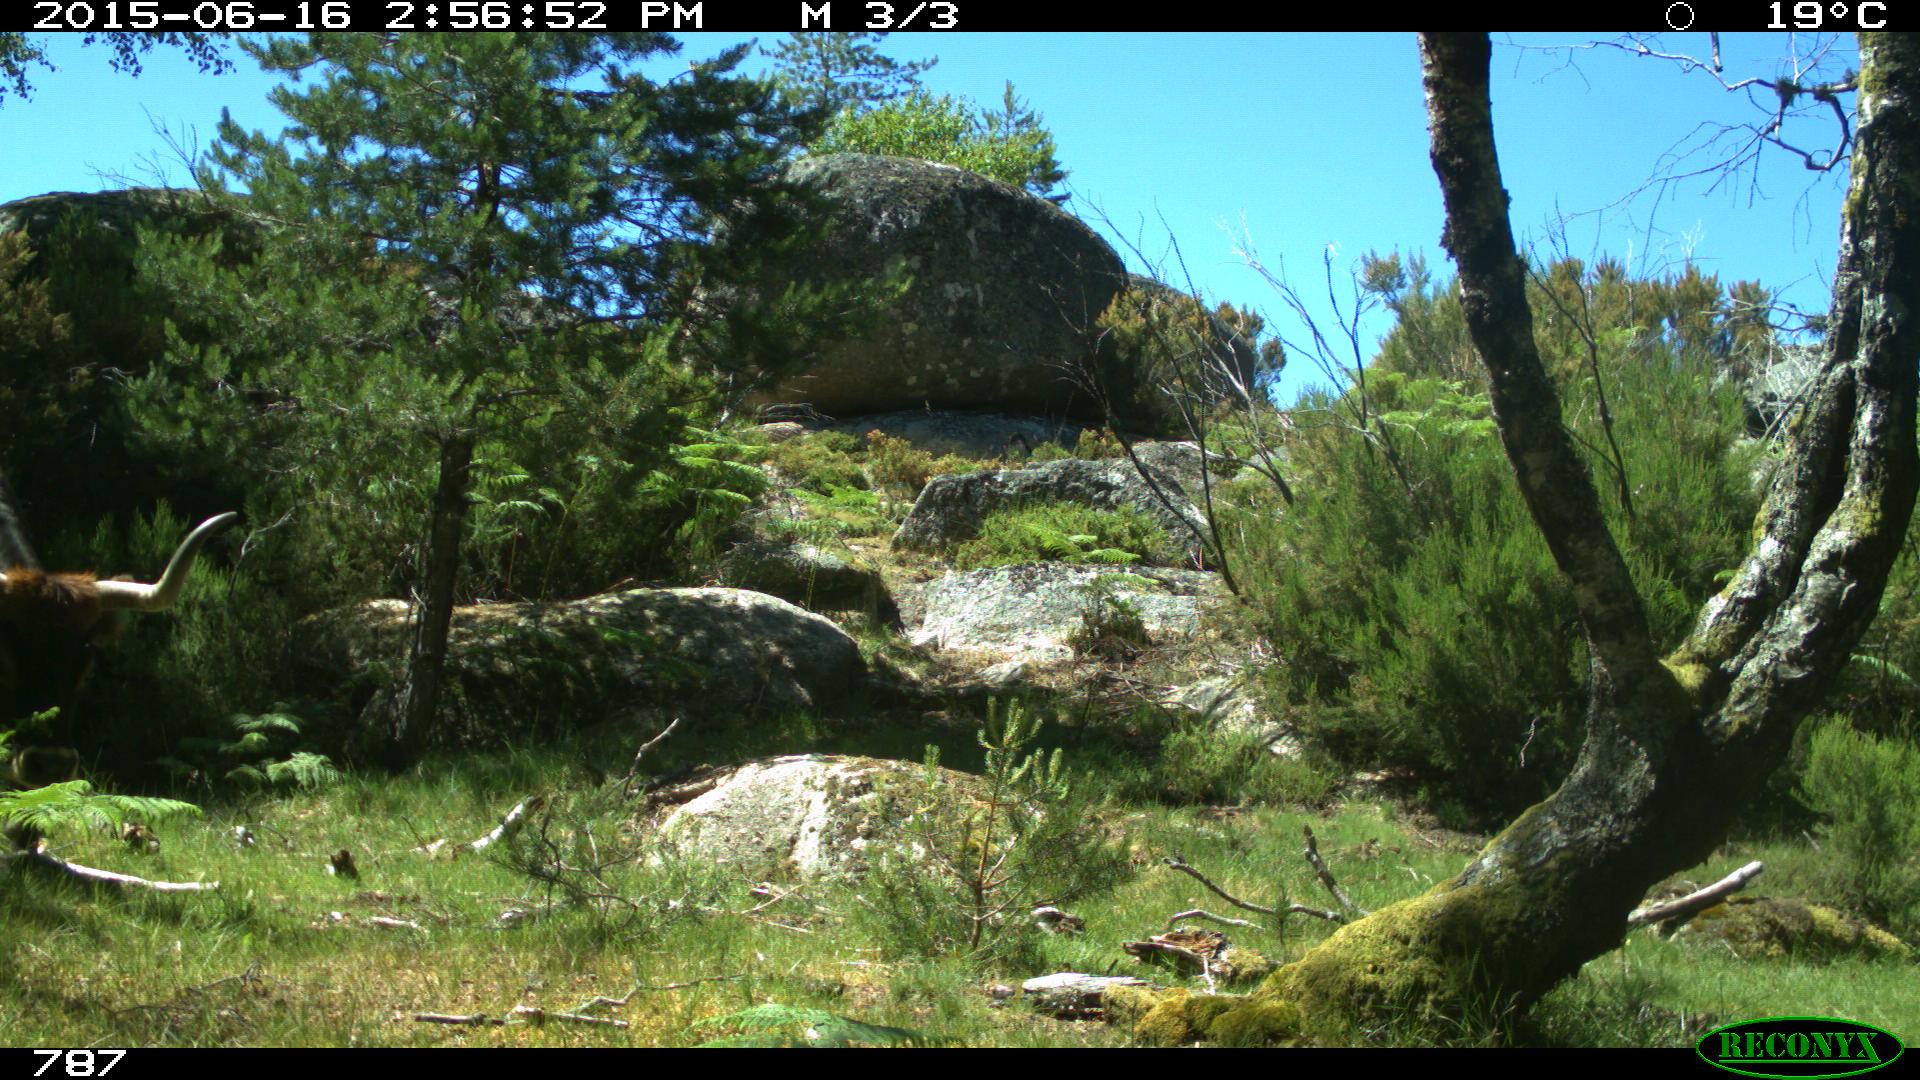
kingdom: Animalia
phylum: Chordata
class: Mammalia
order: Artiodactyla
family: Bovidae
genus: Bos
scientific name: Bos taurus
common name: Domesticated cattle
